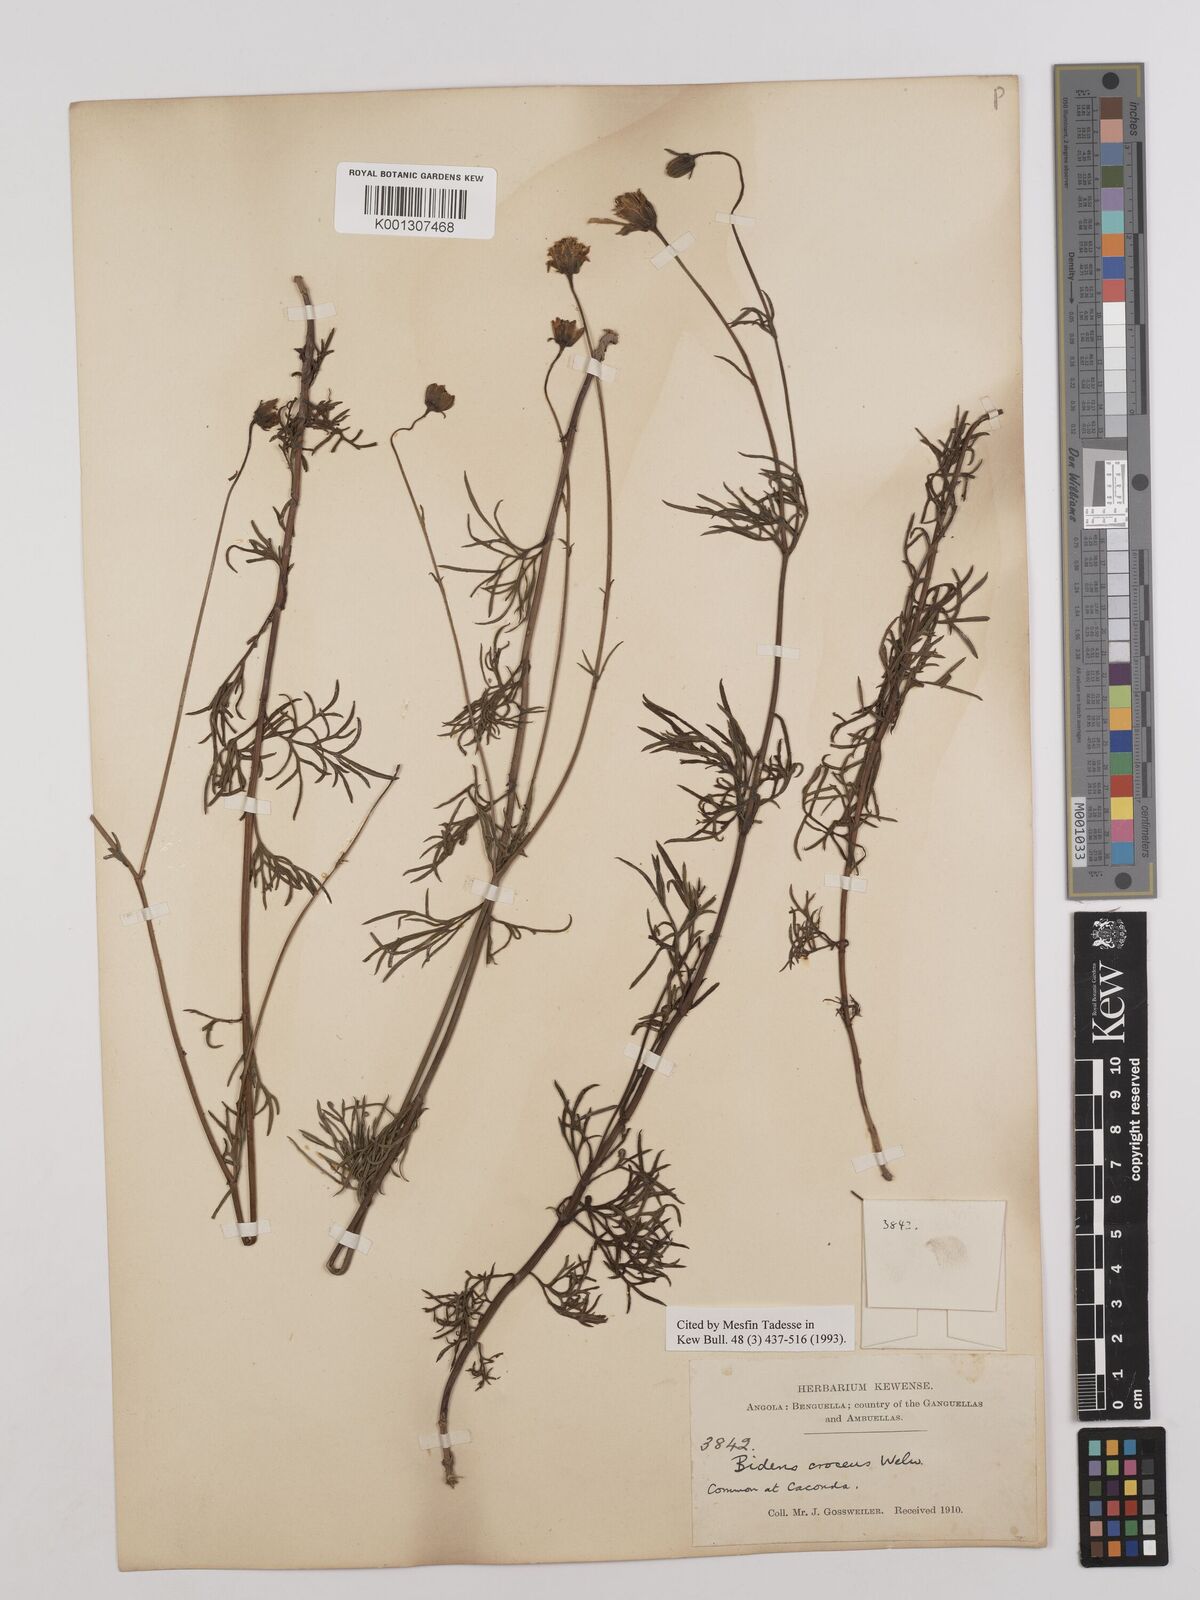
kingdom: Plantae
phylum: Tracheophyta
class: Magnoliopsida
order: Asterales
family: Asteraceae
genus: Bidens
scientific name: Bidens crocea
